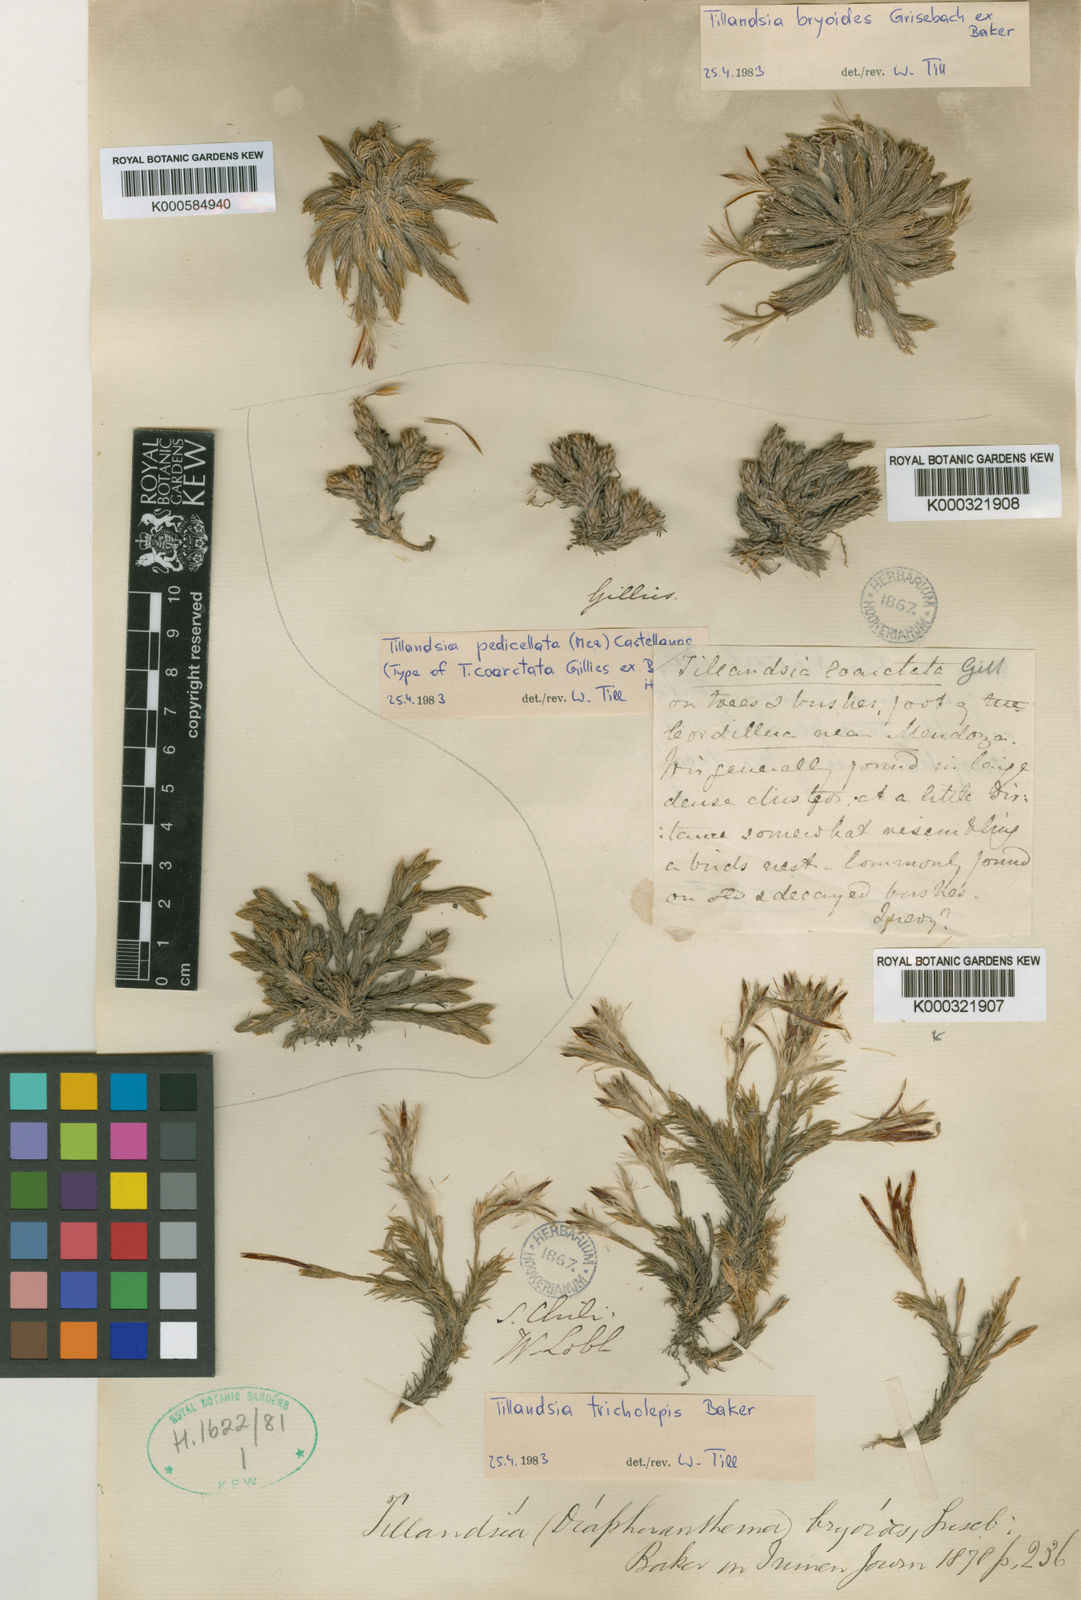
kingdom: Plantae
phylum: Tracheophyta
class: Liliopsida
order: Poales
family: Bromeliaceae
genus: Tillandsia
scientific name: Tillandsia
